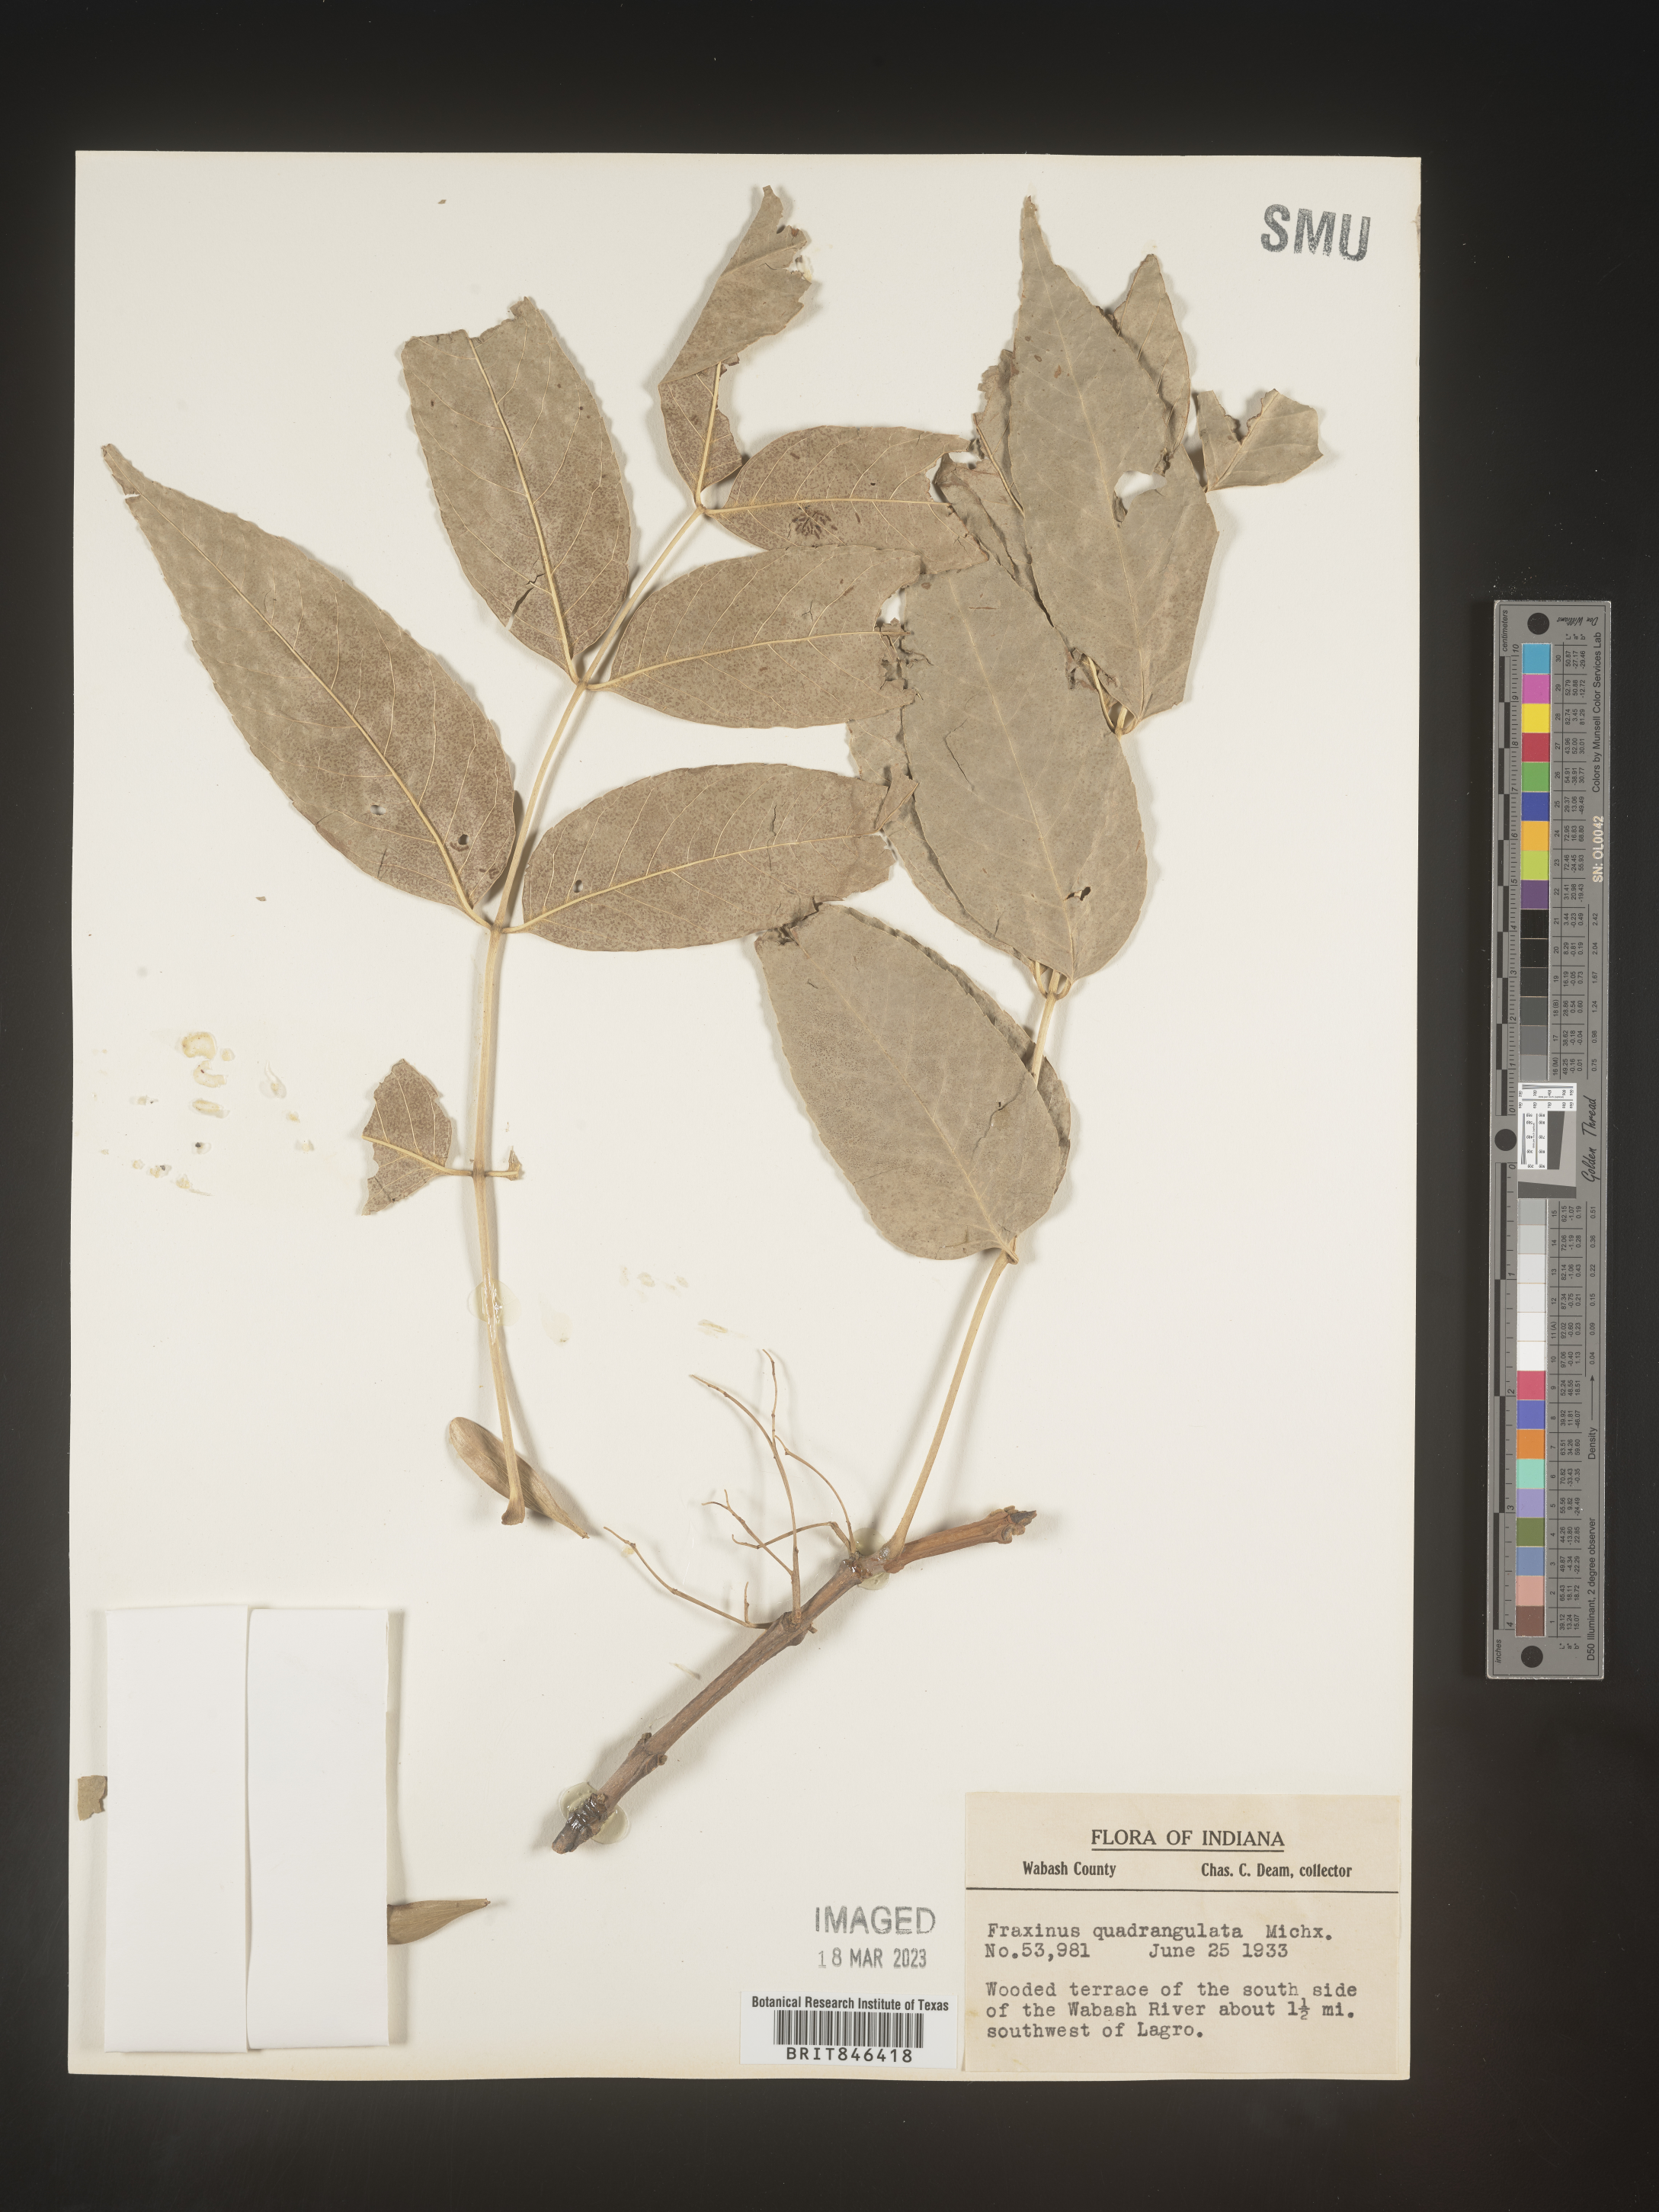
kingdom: Plantae
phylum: Tracheophyta
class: Magnoliopsida
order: Lamiales
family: Oleaceae
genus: Fraxinus
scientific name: Fraxinus quadrangulata
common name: Blue ash
